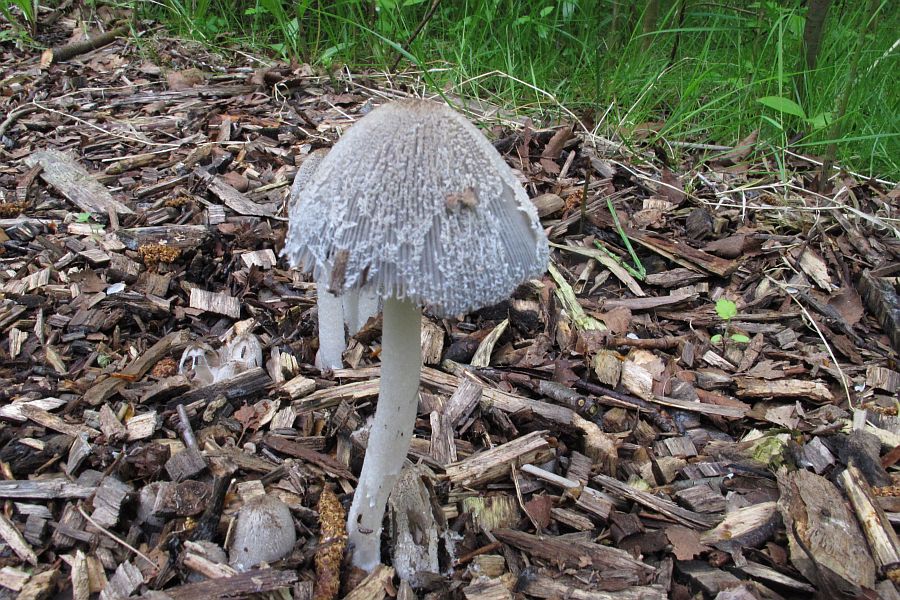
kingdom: Fungi
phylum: Basidiomycota
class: Agaricomycetes
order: Agaricales
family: Psathyrellaceae
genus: Coprinopsis
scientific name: Coprinopsis lagopus
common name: dunstokket blækhat
